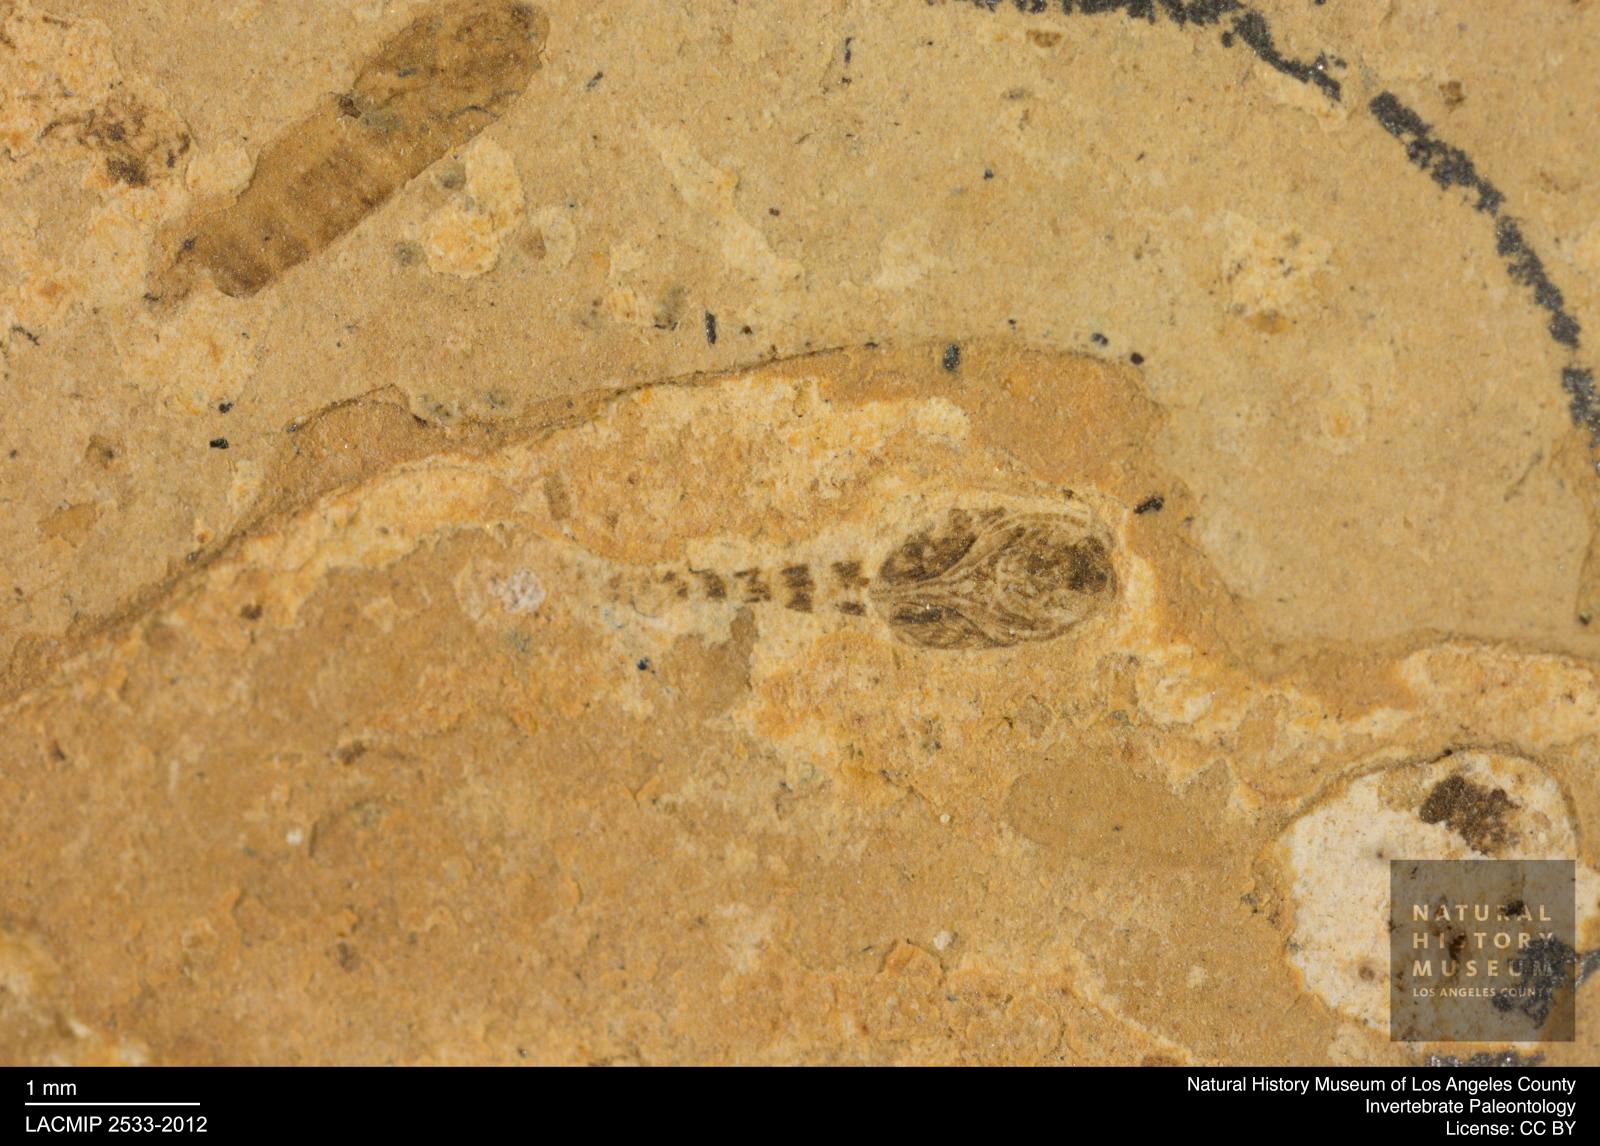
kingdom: Animalia
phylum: Arthropoda
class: Insecta
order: Diptera
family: Ceratopogonidae
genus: Ceratopogon
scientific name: Ceratopogon
